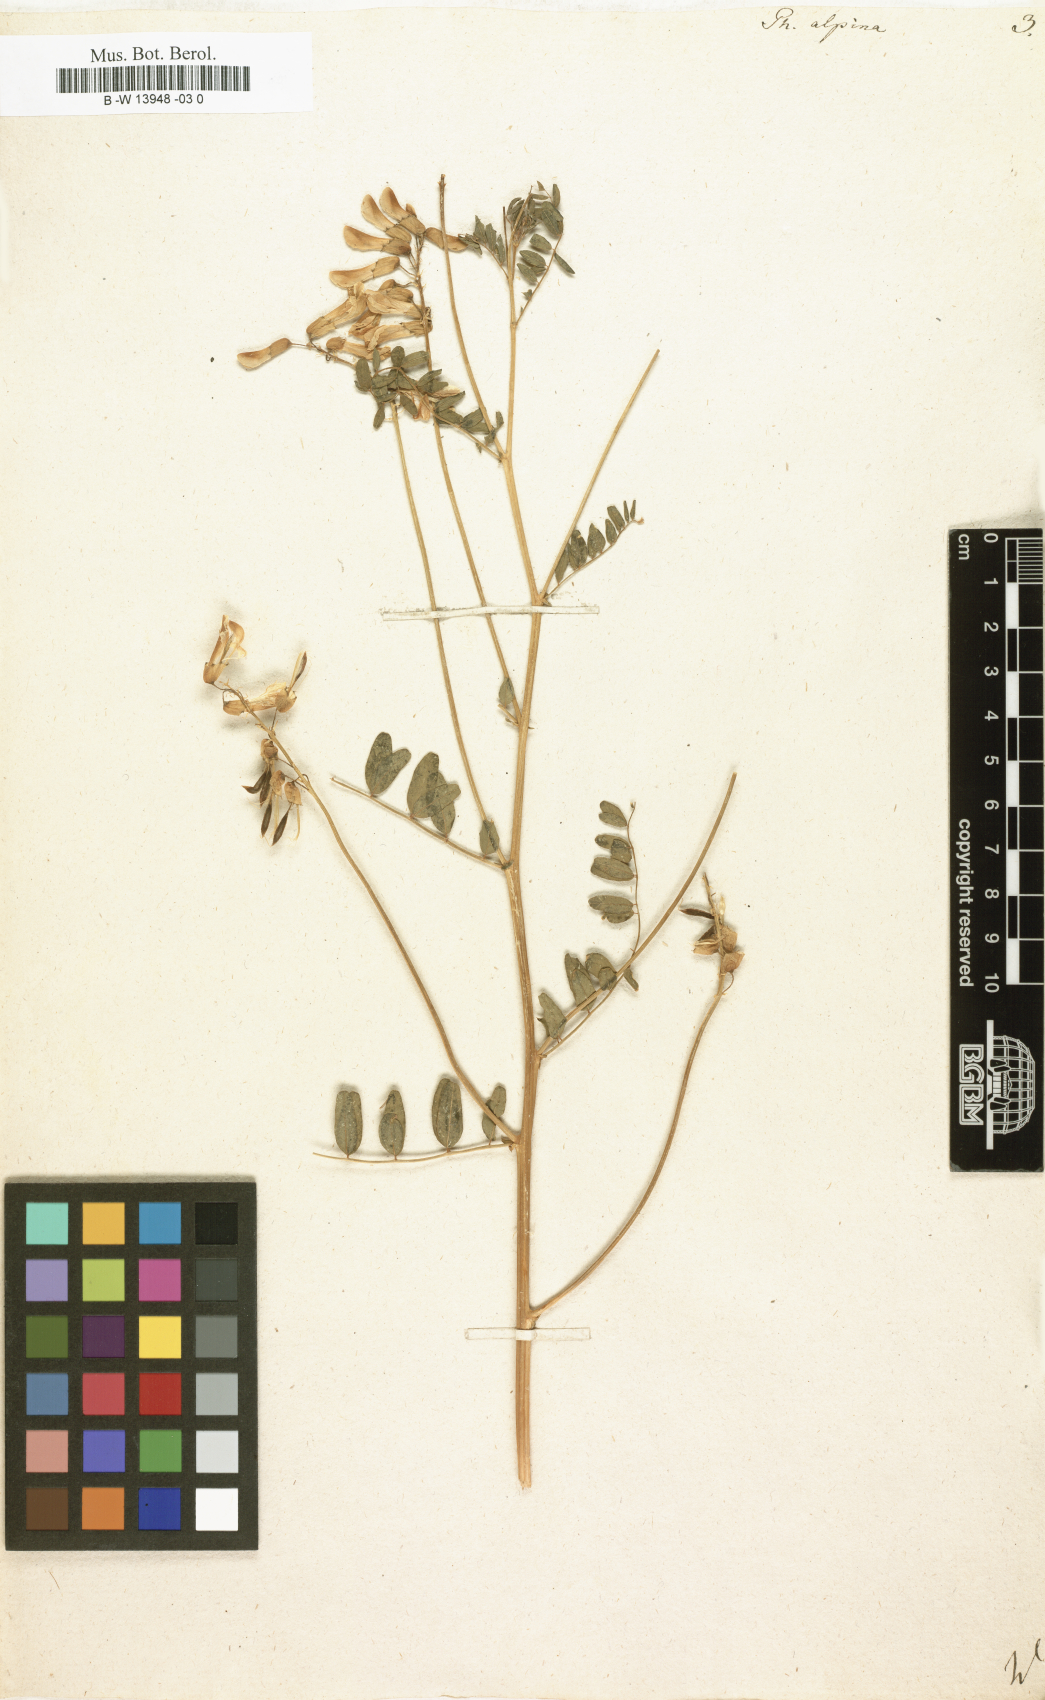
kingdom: Plantae
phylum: Tracheophyta
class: Magnoliopsida
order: Fabales
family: Fabaceae
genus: Astragalus
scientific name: Astragalus penduliflorus
